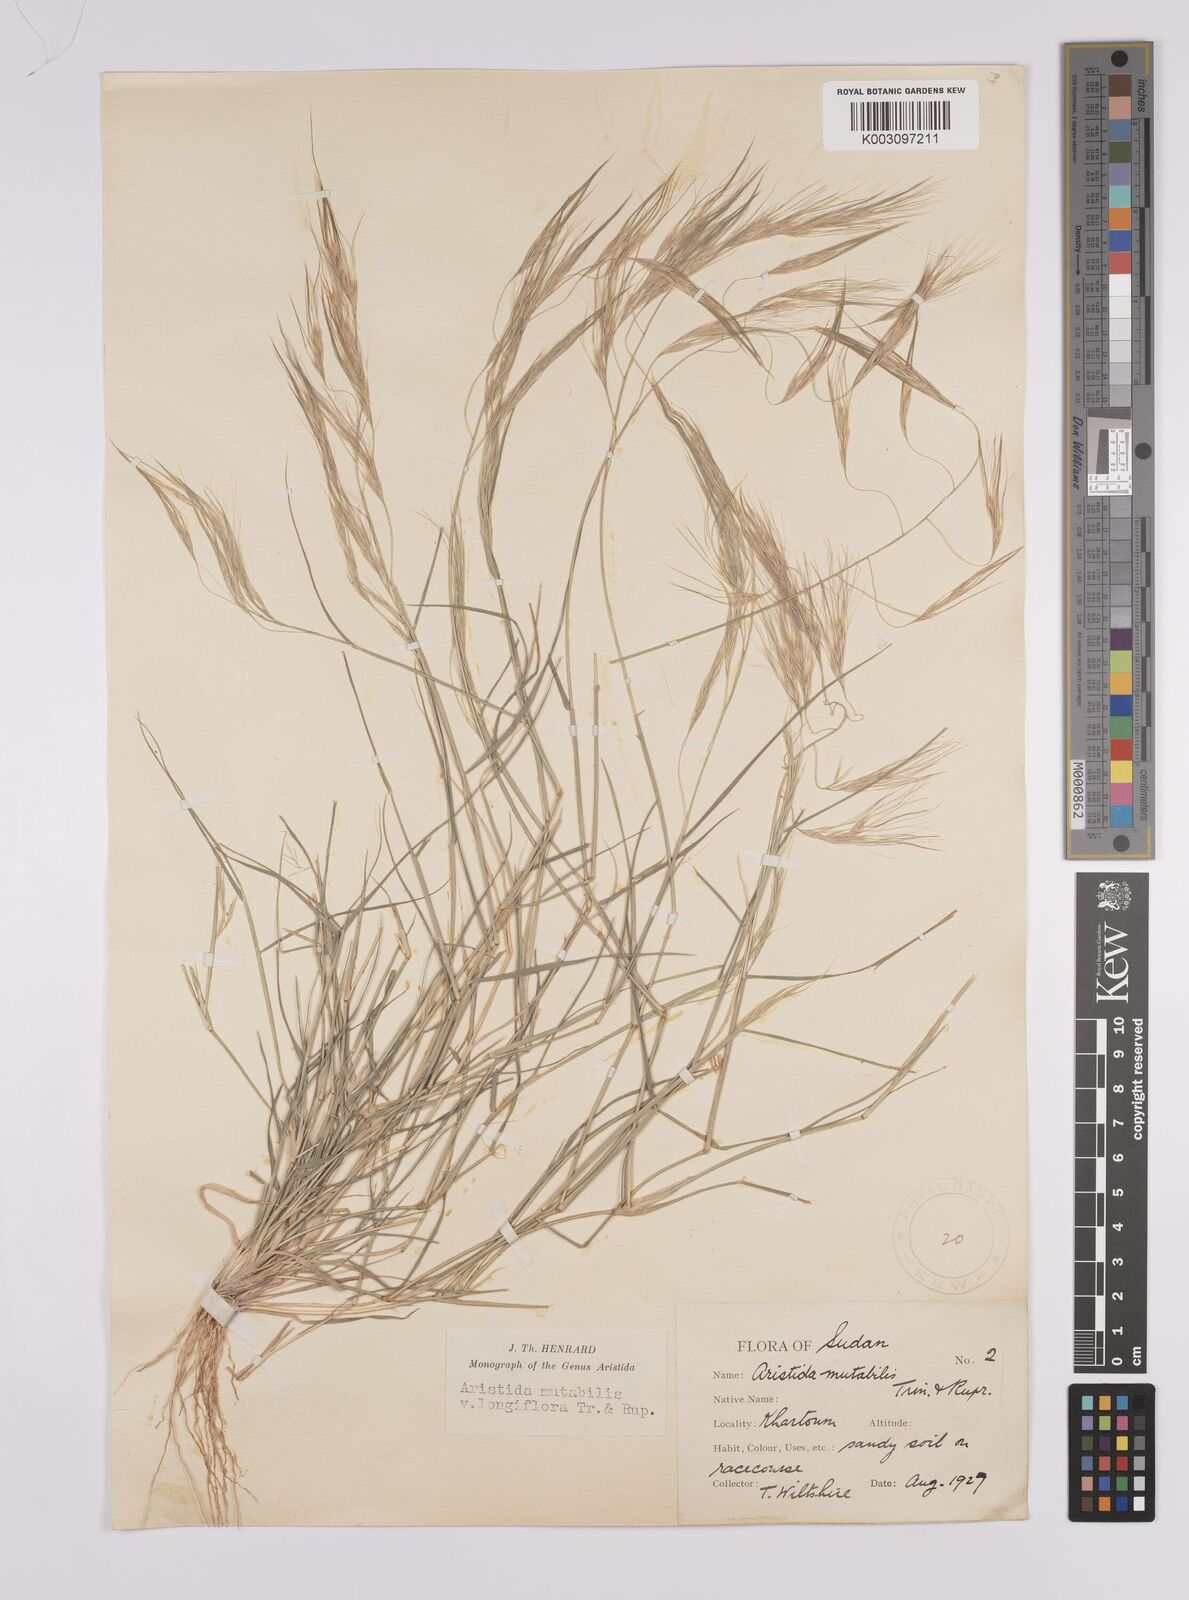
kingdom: Plantae
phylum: Tracheophyta
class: Liliopsida
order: Poales
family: Poaceae
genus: Aristida
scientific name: Aristida mutabilis
